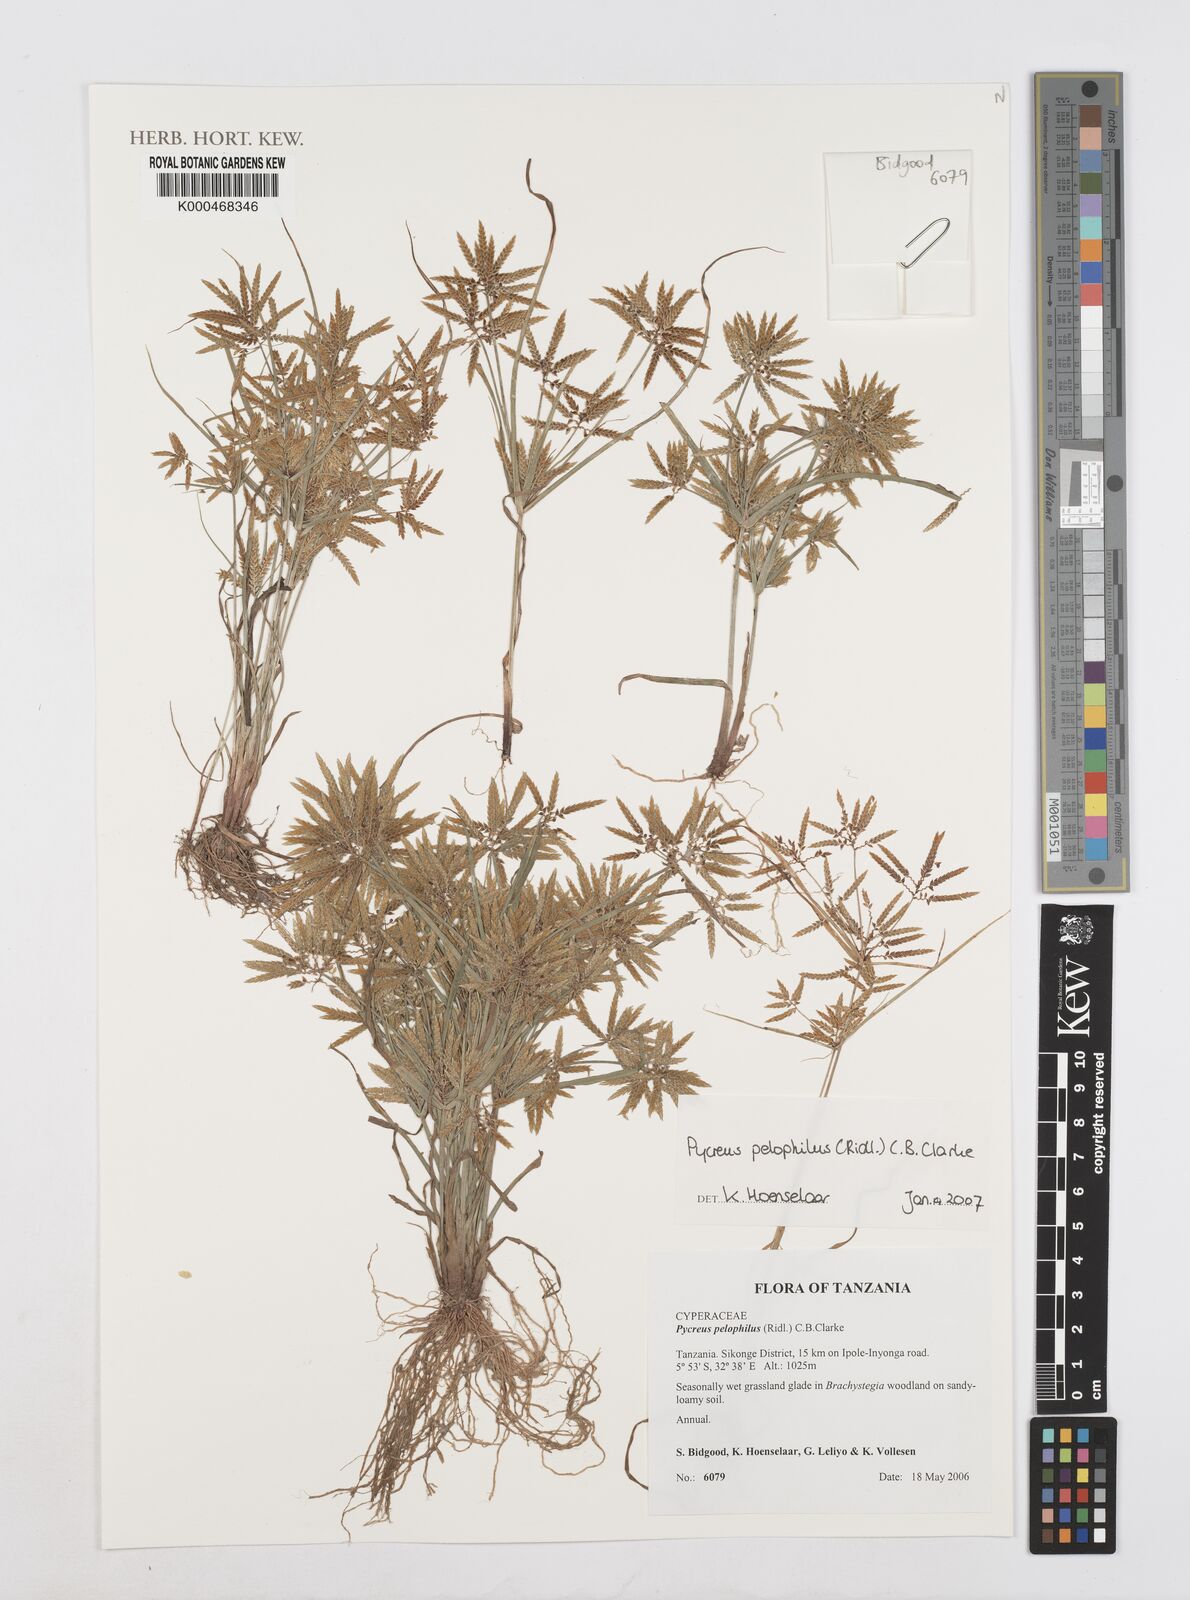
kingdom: Plantae
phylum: Tracheophyta
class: Liliopsida
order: Poales
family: Cyperaceae
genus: Cyperus
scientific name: Cyperus pelophilus
